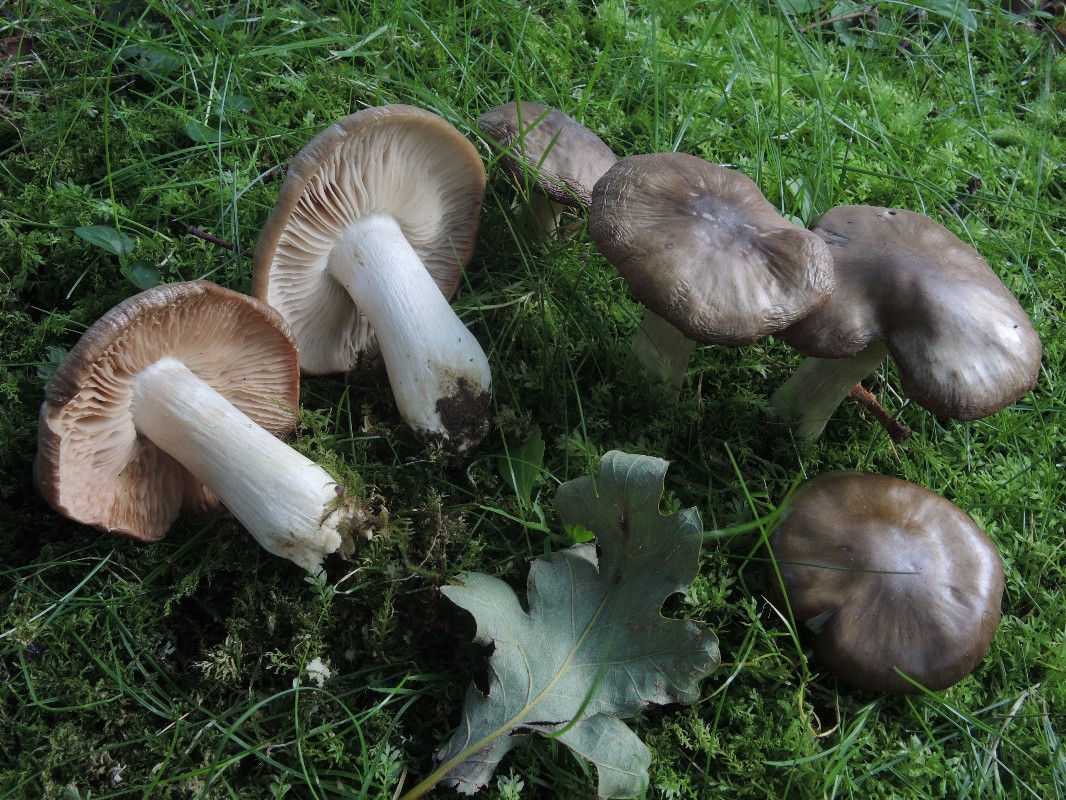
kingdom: Fungi
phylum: Basidiomycota
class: Agaricomycetes
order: Agaricales
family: Entolomataceae
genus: Entoloma
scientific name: Entoloma lividoalbum
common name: lysstokket rødblad
